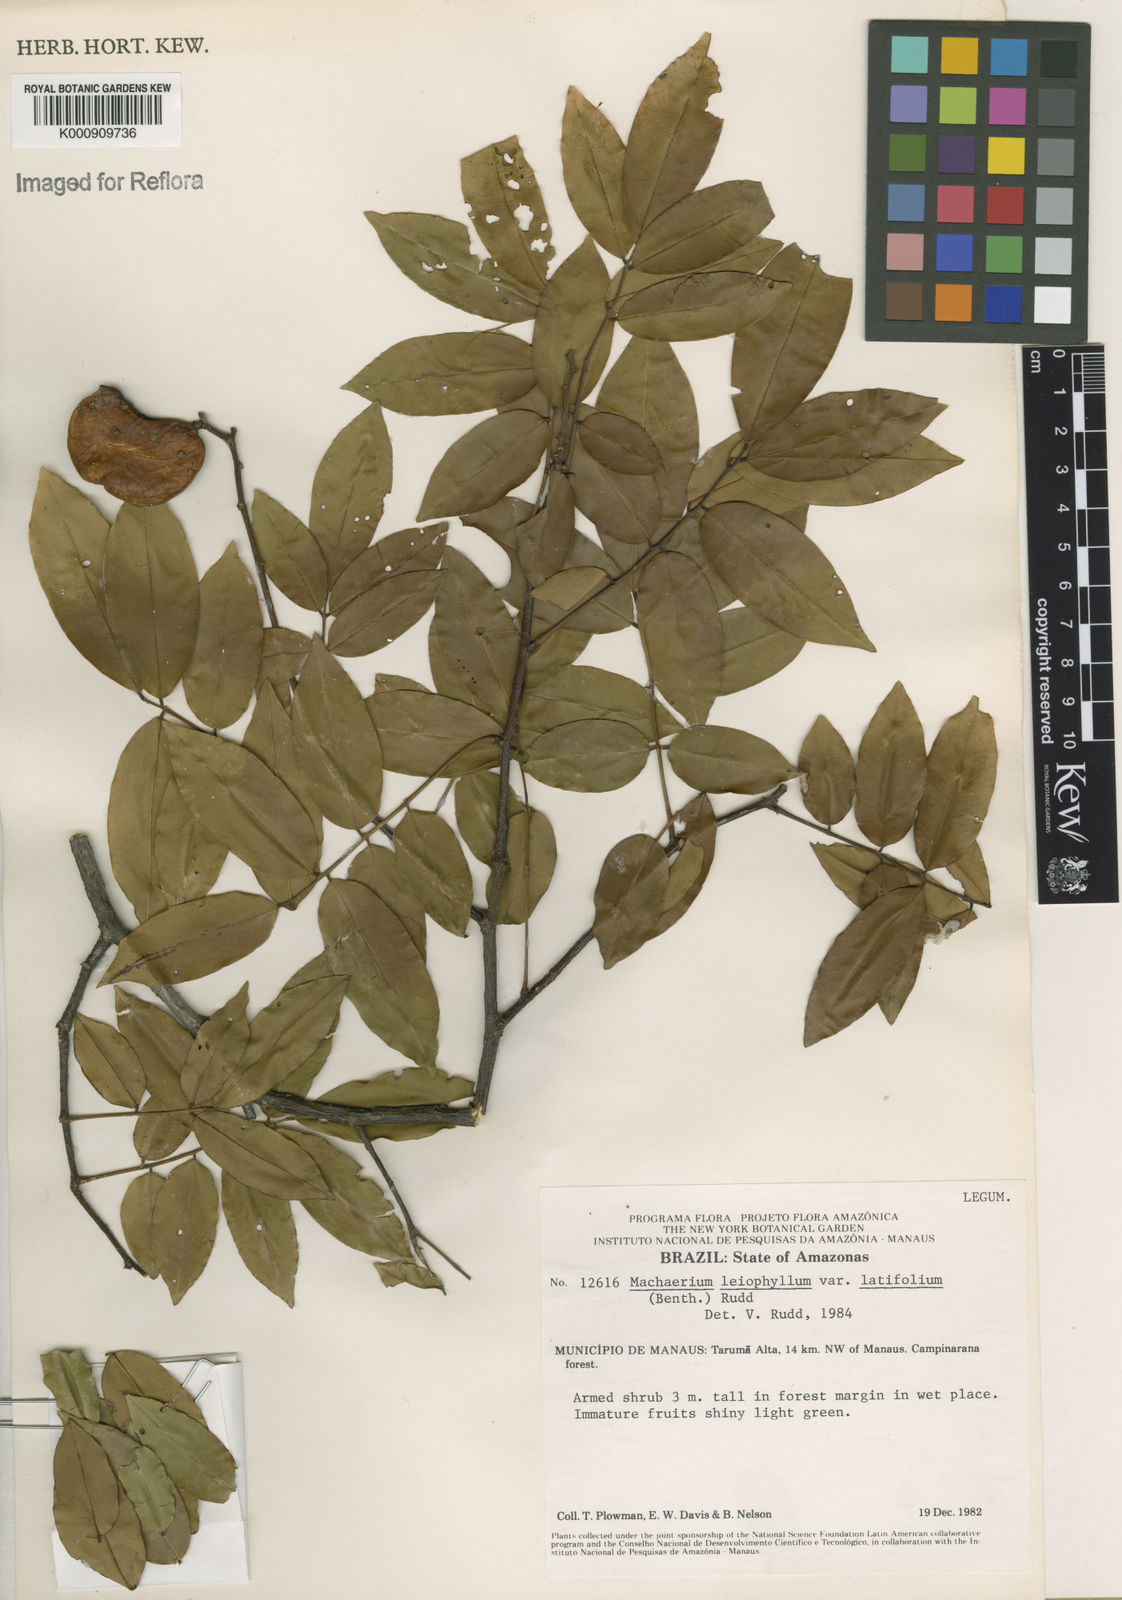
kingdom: Plantae
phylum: Tracheophyta
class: Magnoliopsida
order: Fabales
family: Fabaceae
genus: Machaerium
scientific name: Machaerium leiophyllum
